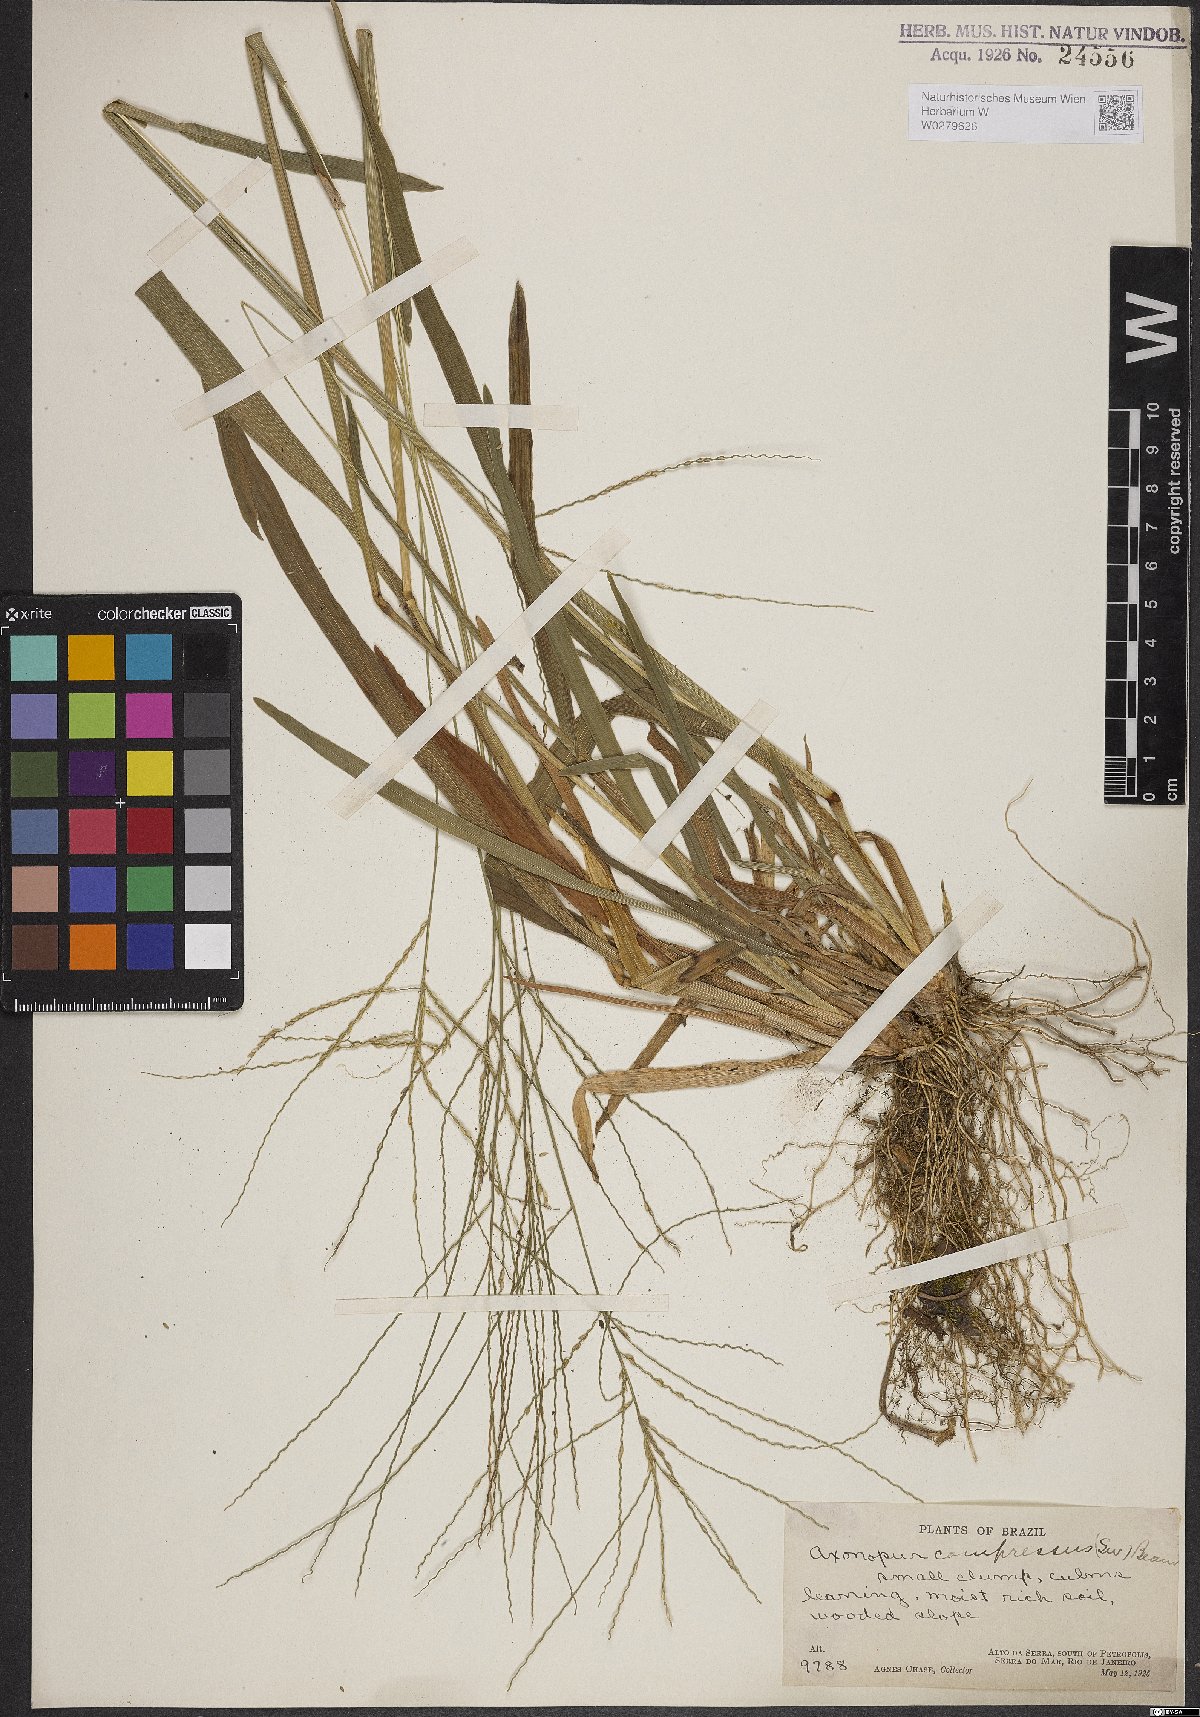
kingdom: Plantae
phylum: Tracheophyta
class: Liliopsida
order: Poales
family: Poaceae
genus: Axonopus
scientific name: Axonopus compressus
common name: American carpet grass
